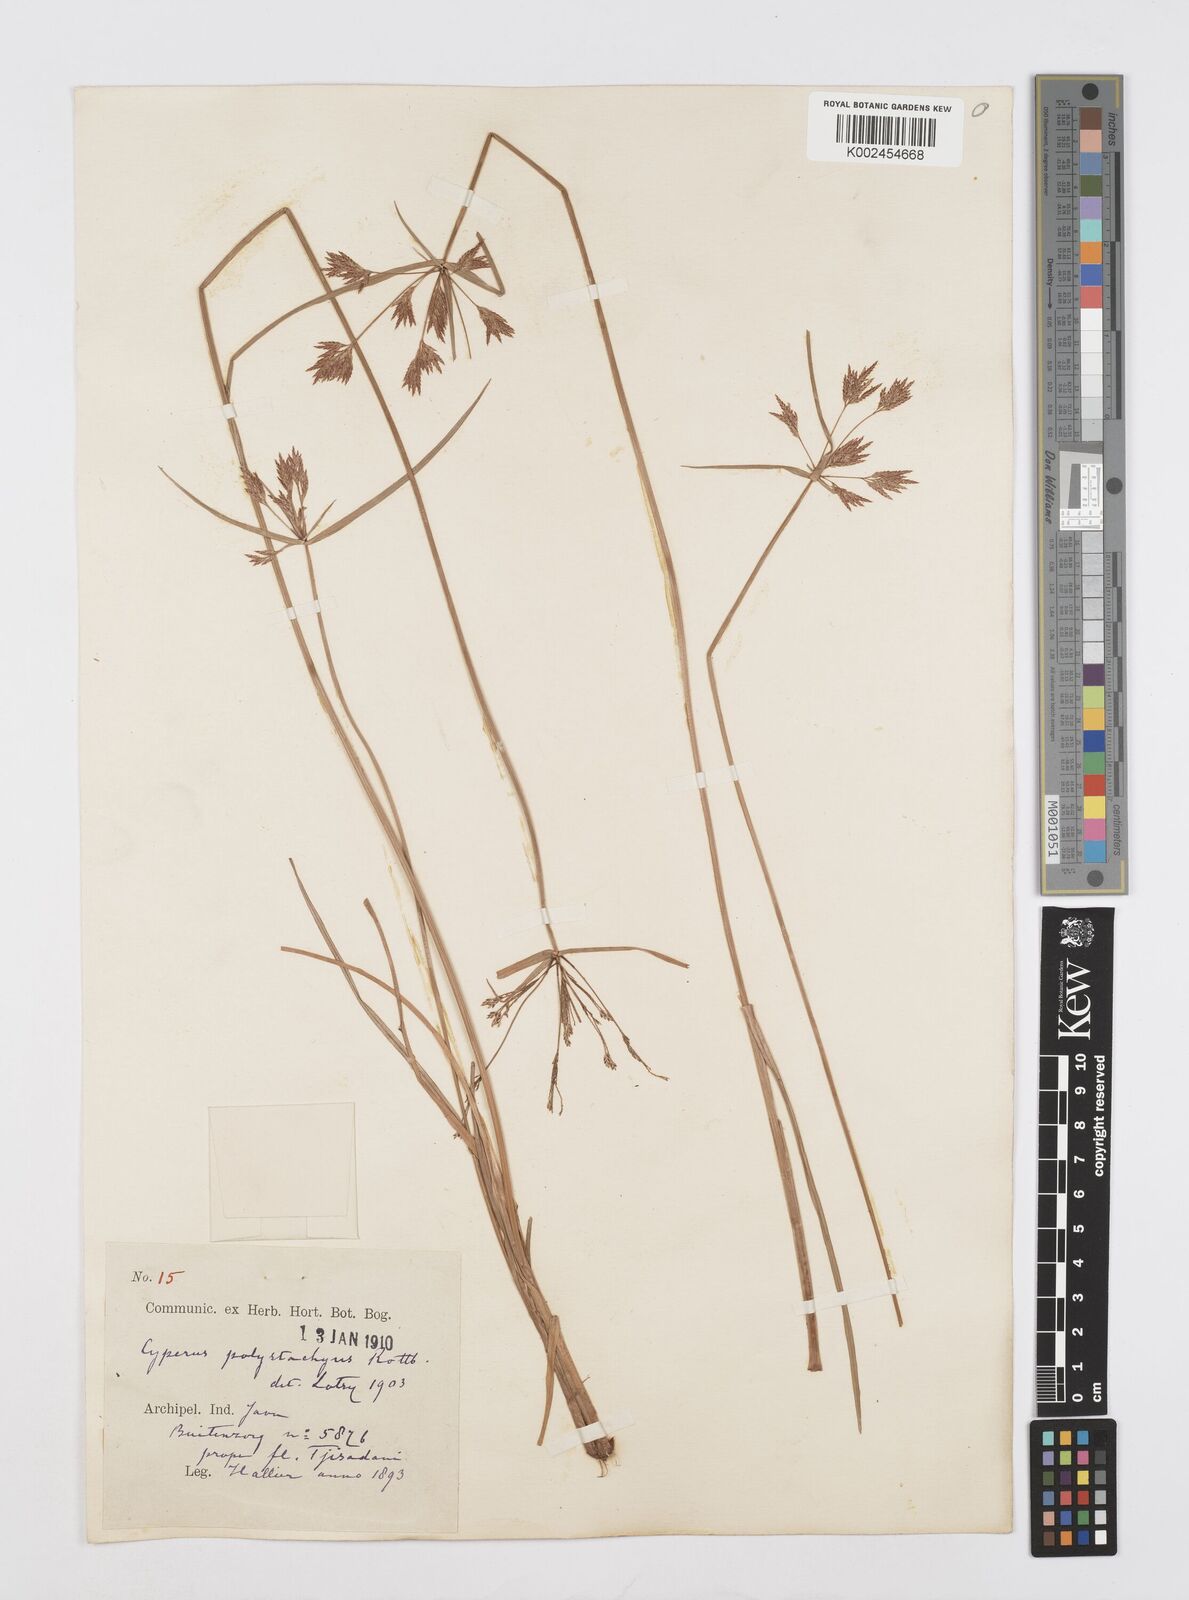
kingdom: Plantae
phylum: Tracheophyta
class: Liliopsida
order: Poales
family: Cyperaceae
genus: Cyperus
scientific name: Cyperus polystachyos
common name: Bunchy flat sedge
